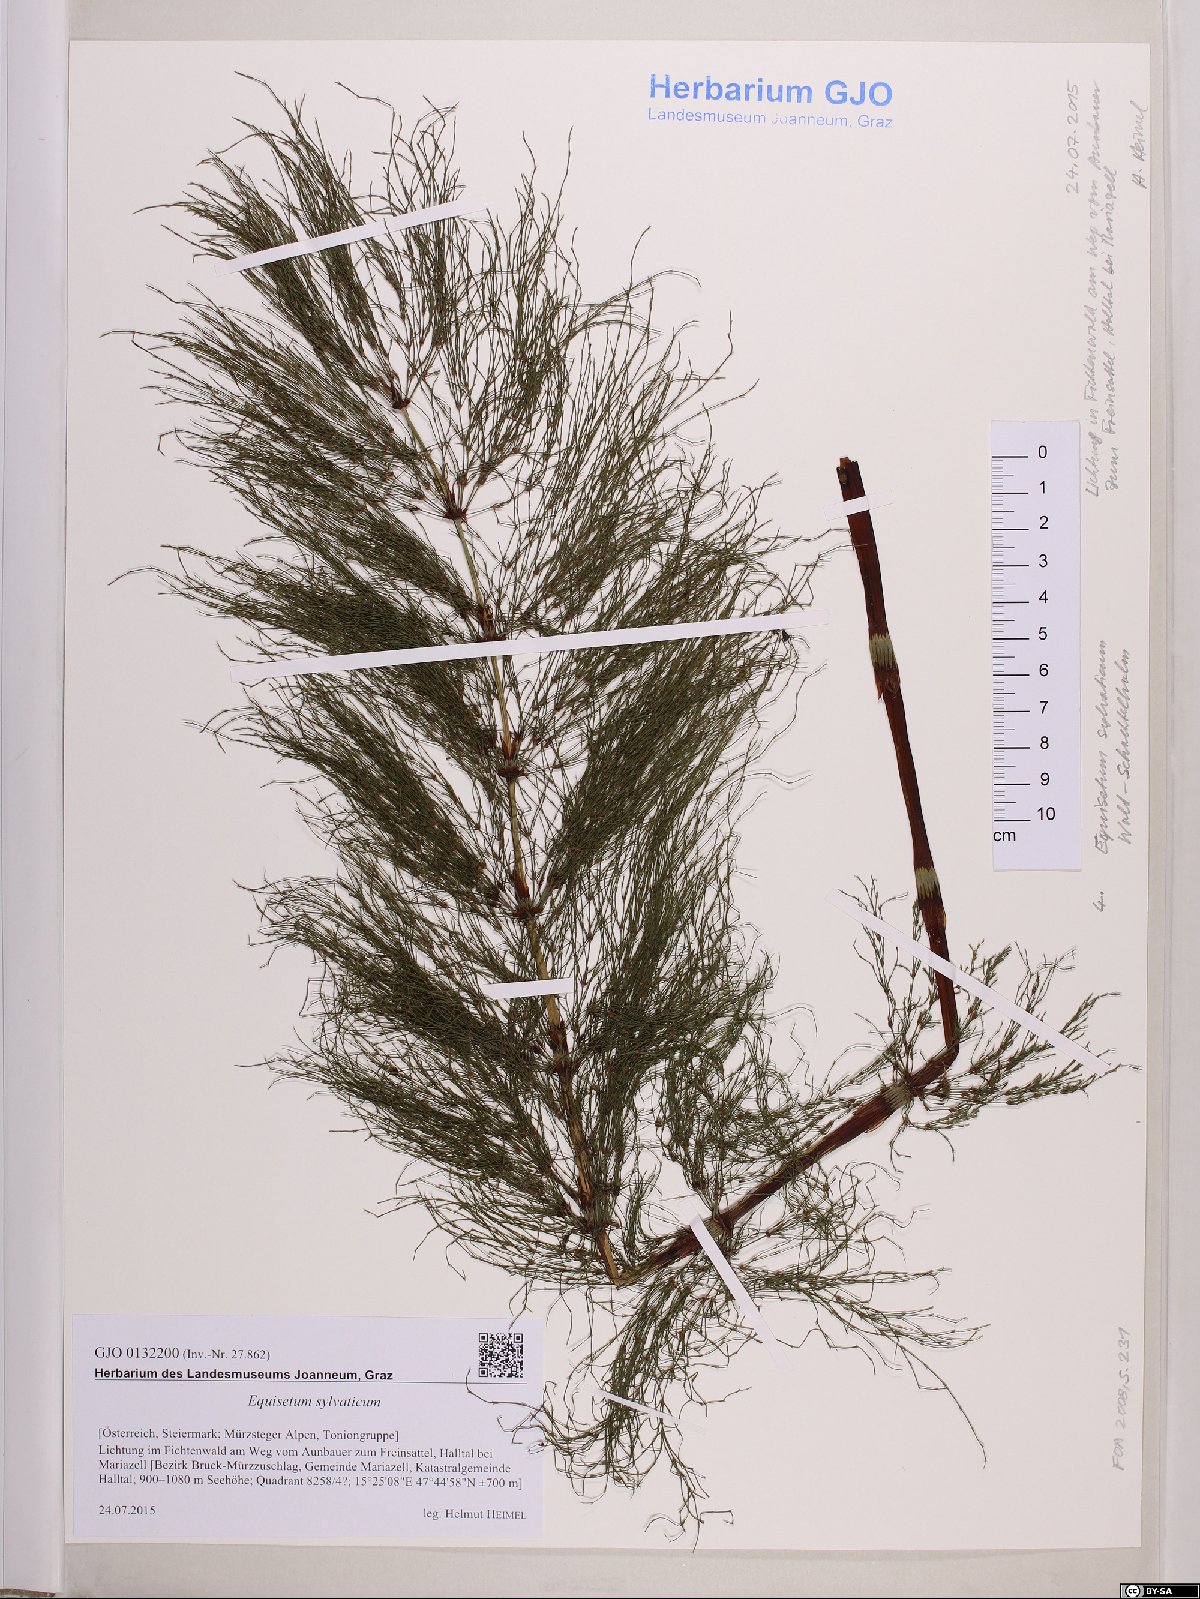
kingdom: Plantae
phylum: Tracheophyta
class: Polypodiopsida
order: Equisetales
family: Equisetaceae
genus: Equisetum
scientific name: Equisetum sylvaticum
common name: Wood horsetail
